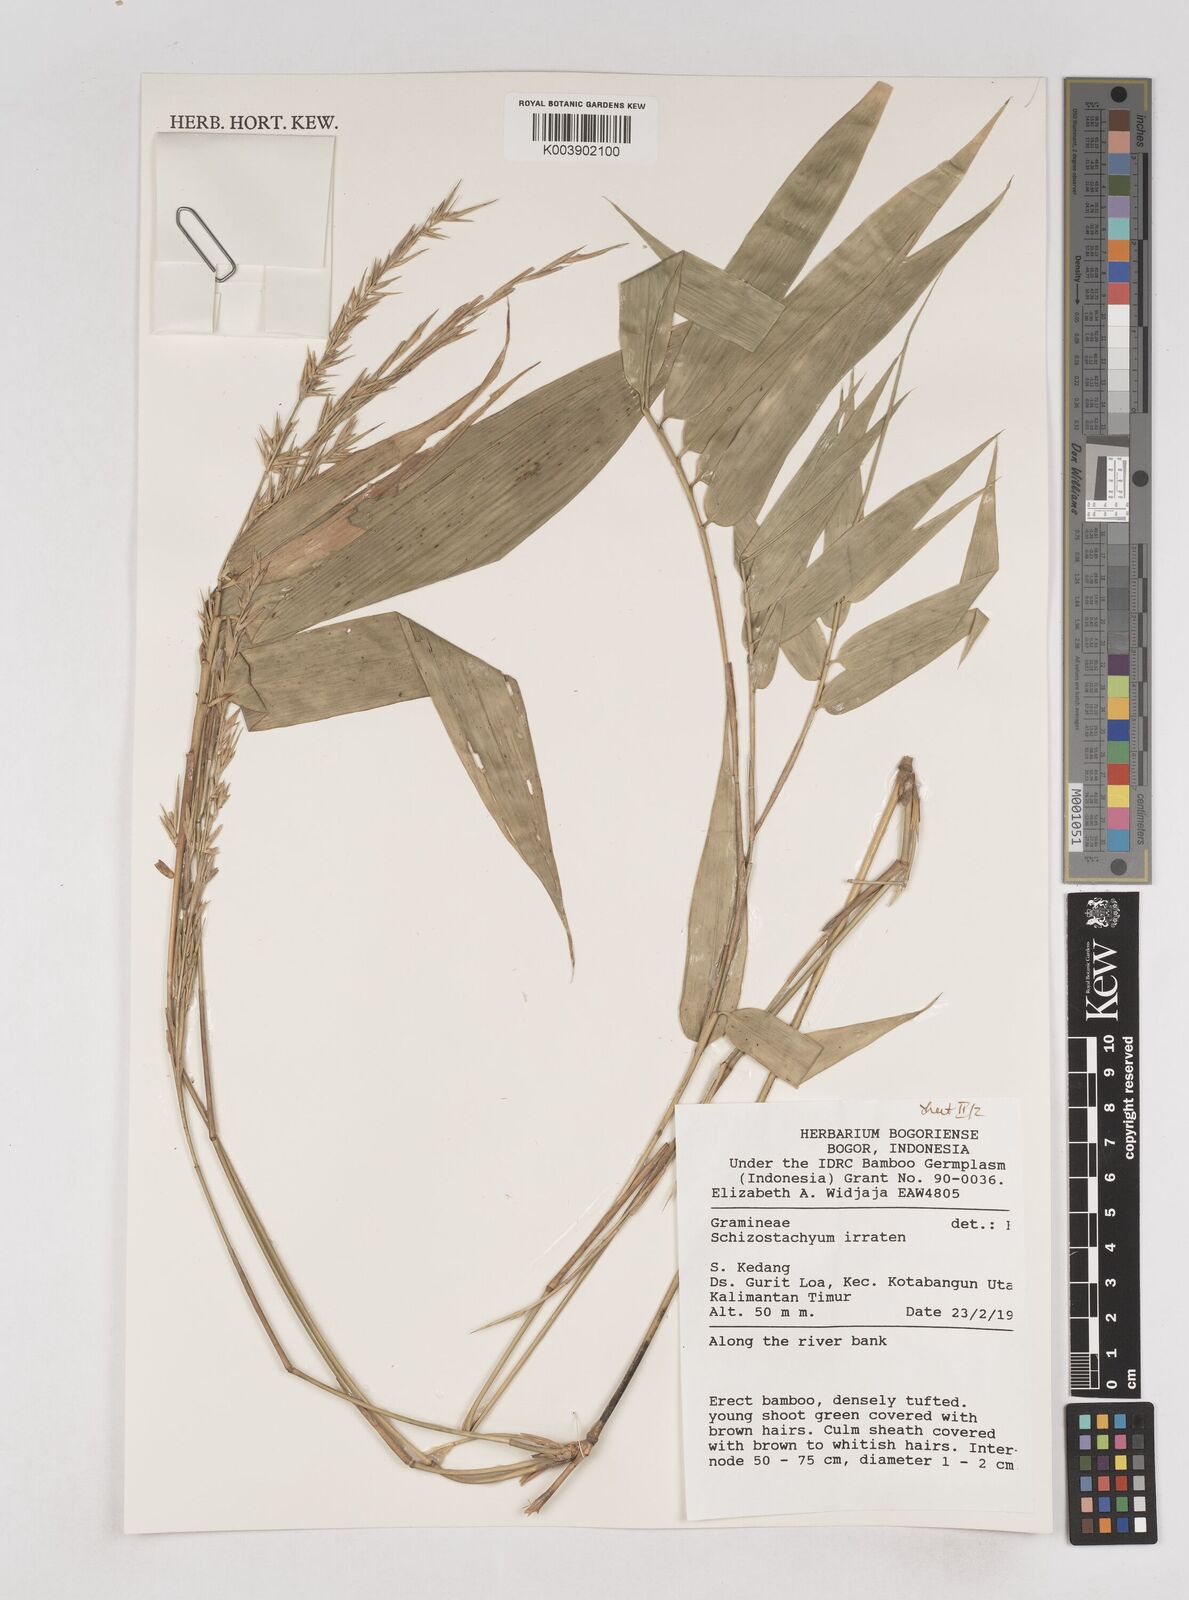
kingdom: Plantae
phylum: Tracheophyta
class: Liliopsida
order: Poales
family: Poaceae
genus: Schizostachyum
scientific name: Schizostachyum iraten
